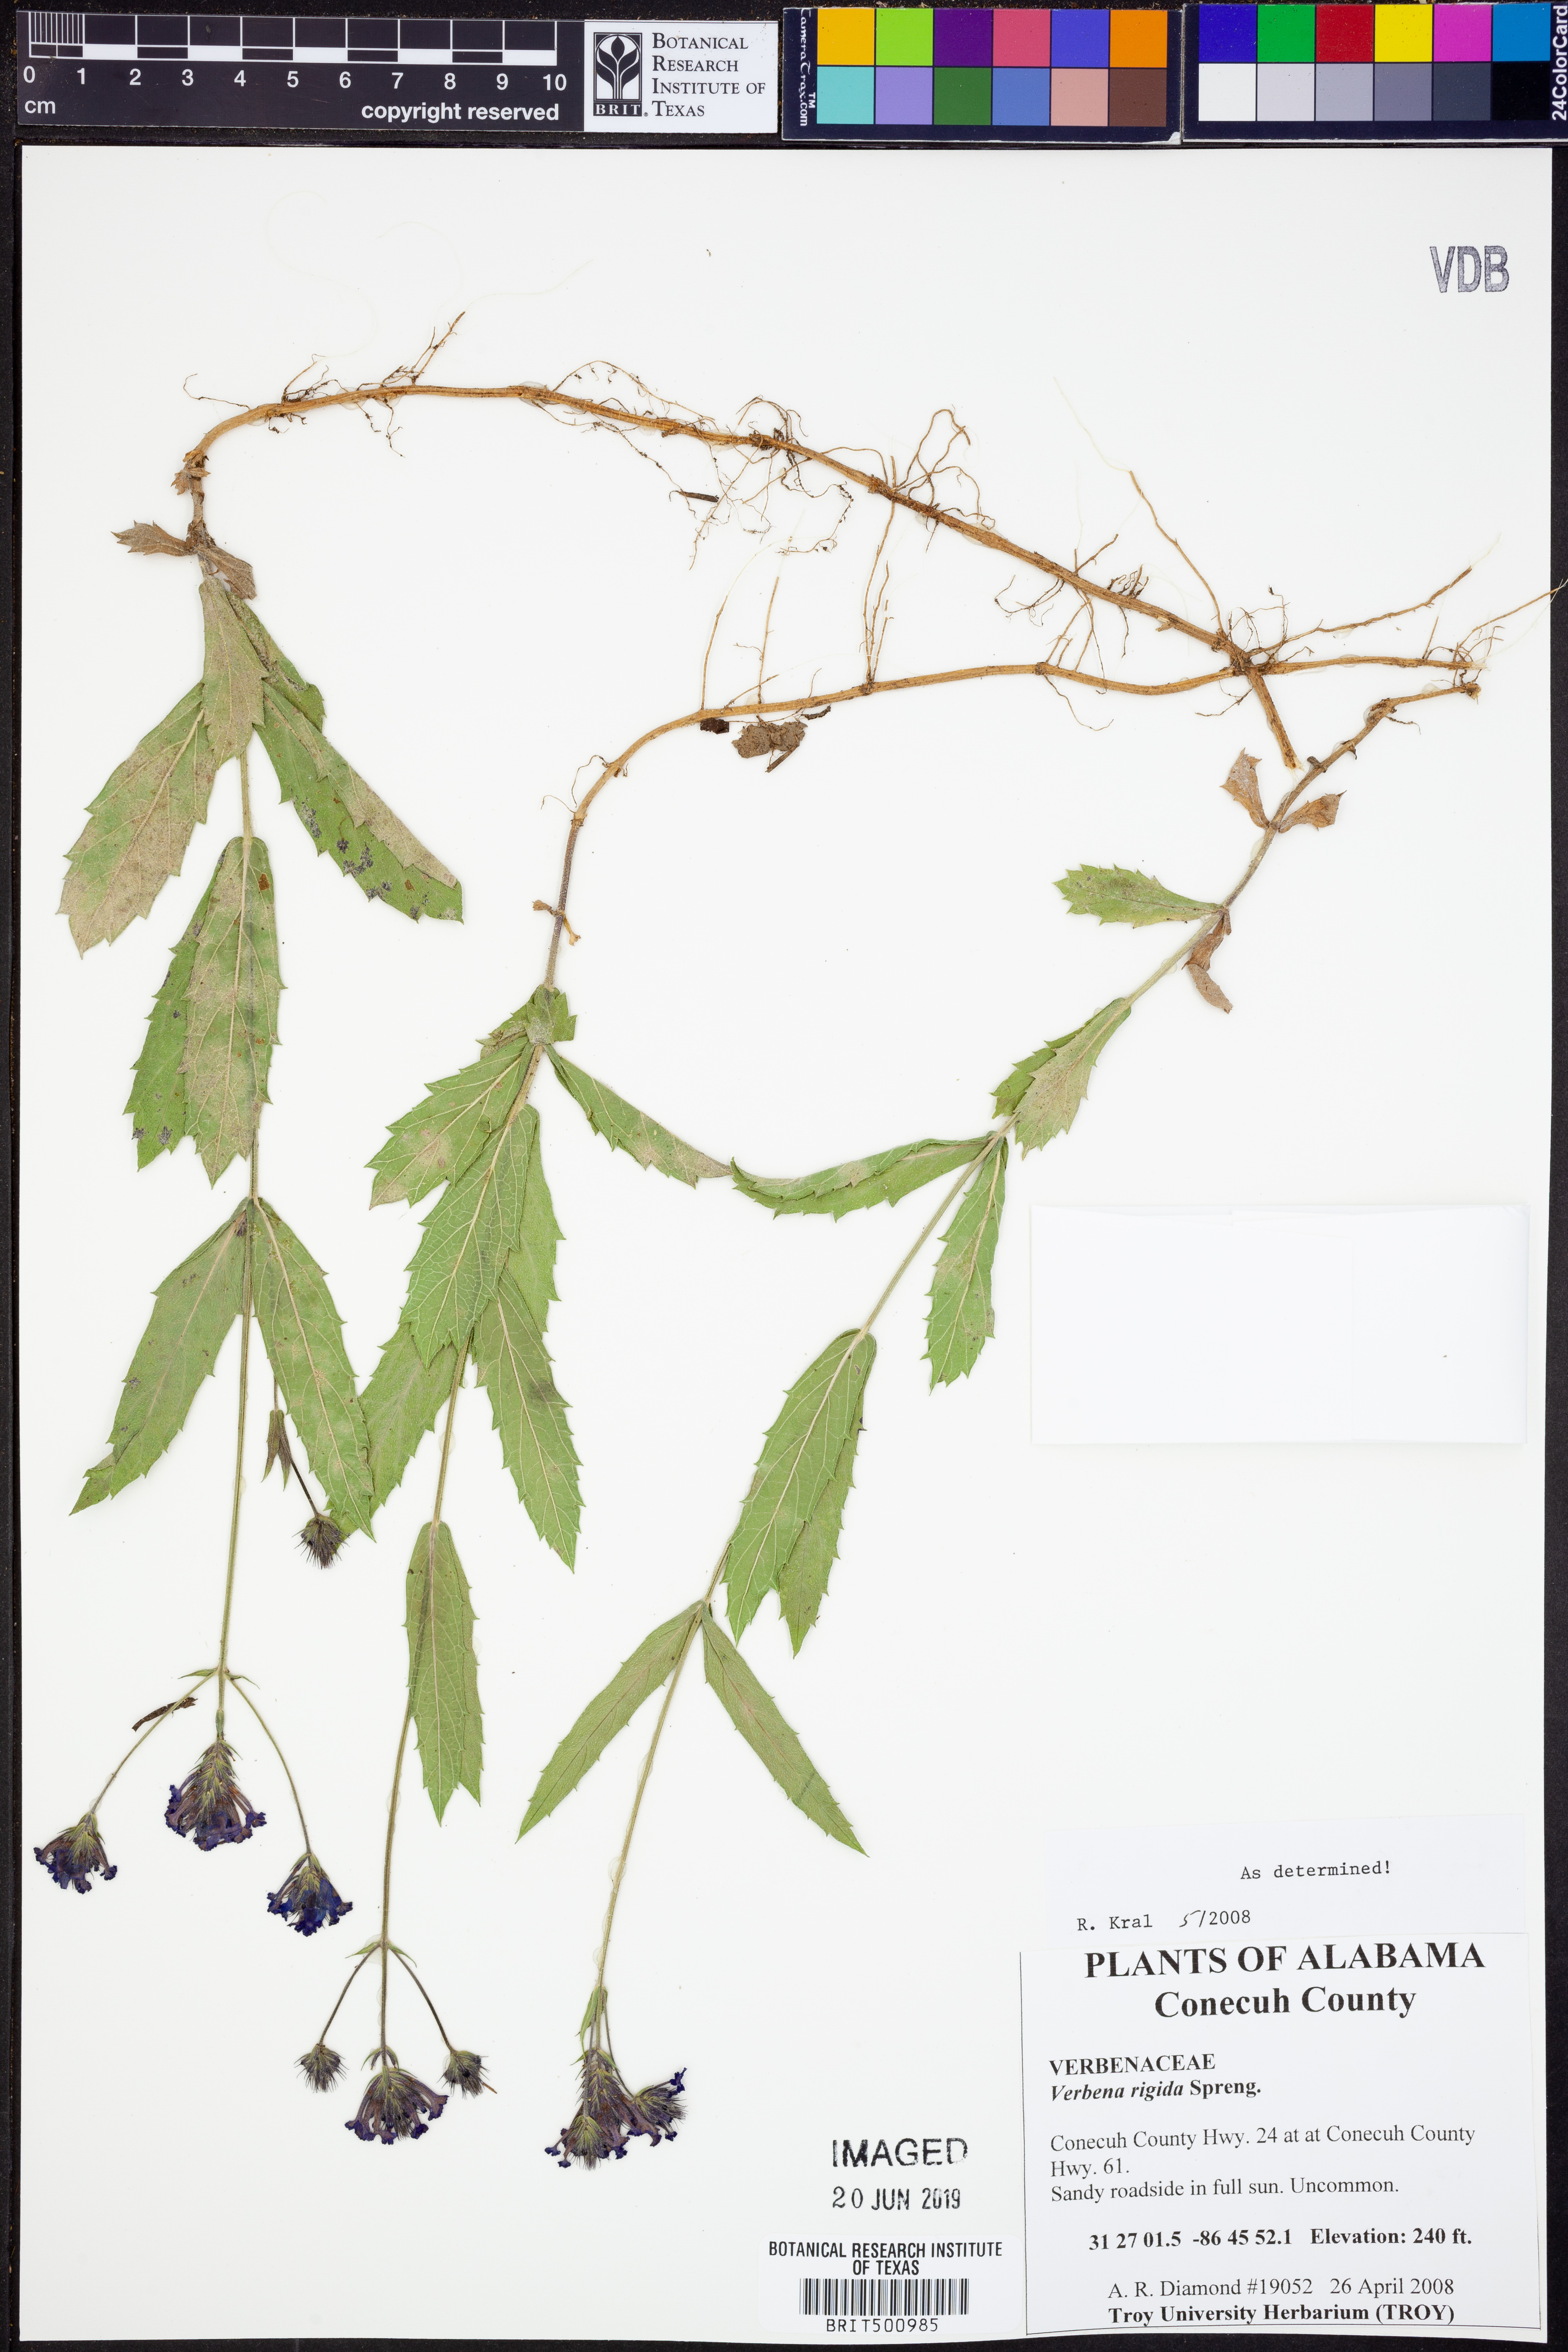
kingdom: Plantae
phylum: Tracheophyta
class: Magnoliopsida
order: Lamiales
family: Verbenaceae
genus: Verbena
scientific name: Verbena rigida
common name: Slender vervain
